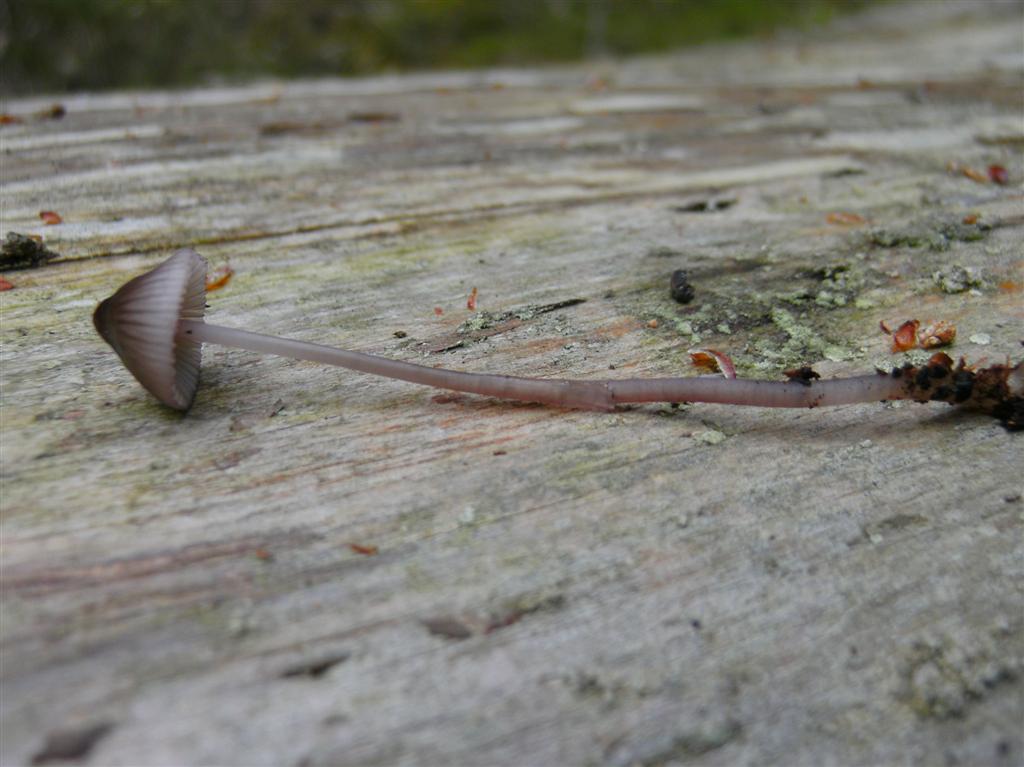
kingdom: Fungi
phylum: Basidiomycota
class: Agaricomycetes
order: Agaricales
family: Mycenaceae
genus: Mycena
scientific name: Mycena purpureofusca
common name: purpur-huesvamp
